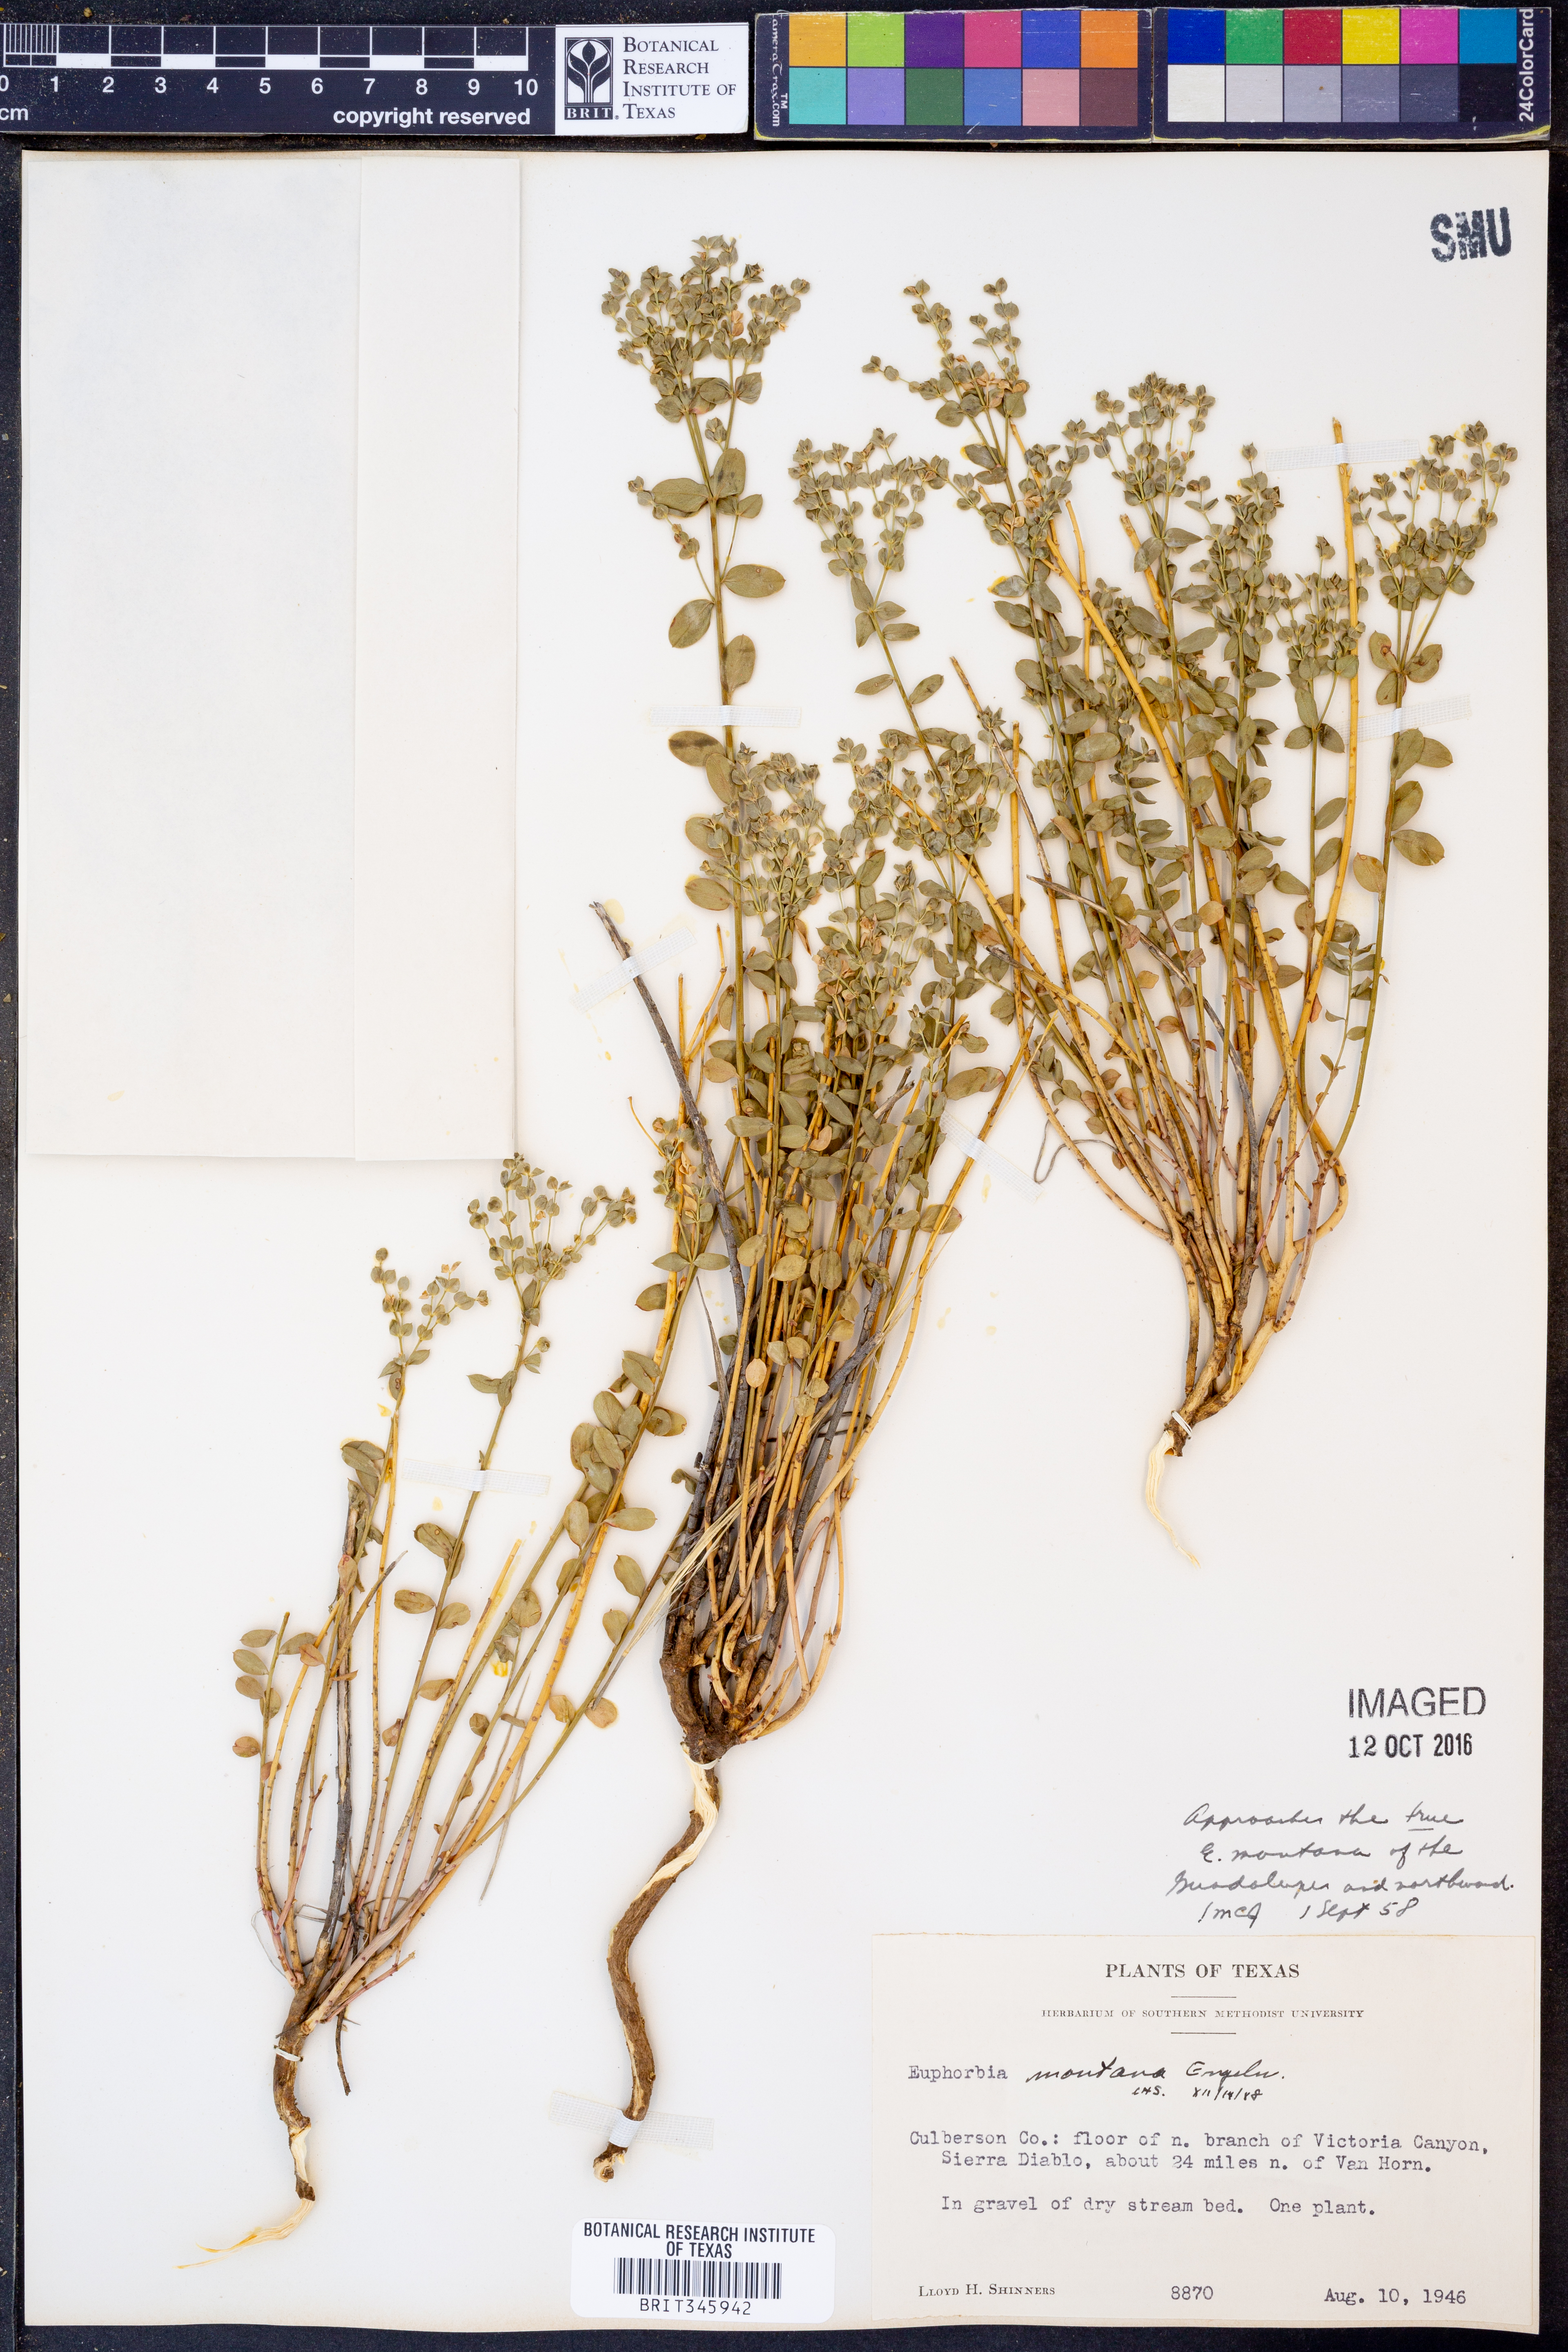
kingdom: Plantae
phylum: Tracheophyta
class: Magnoliopsida
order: Malpighiales
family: Euphorbiaceae
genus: Euphorbia
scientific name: Euphorbia brachycera
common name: Shorthorn spurge
